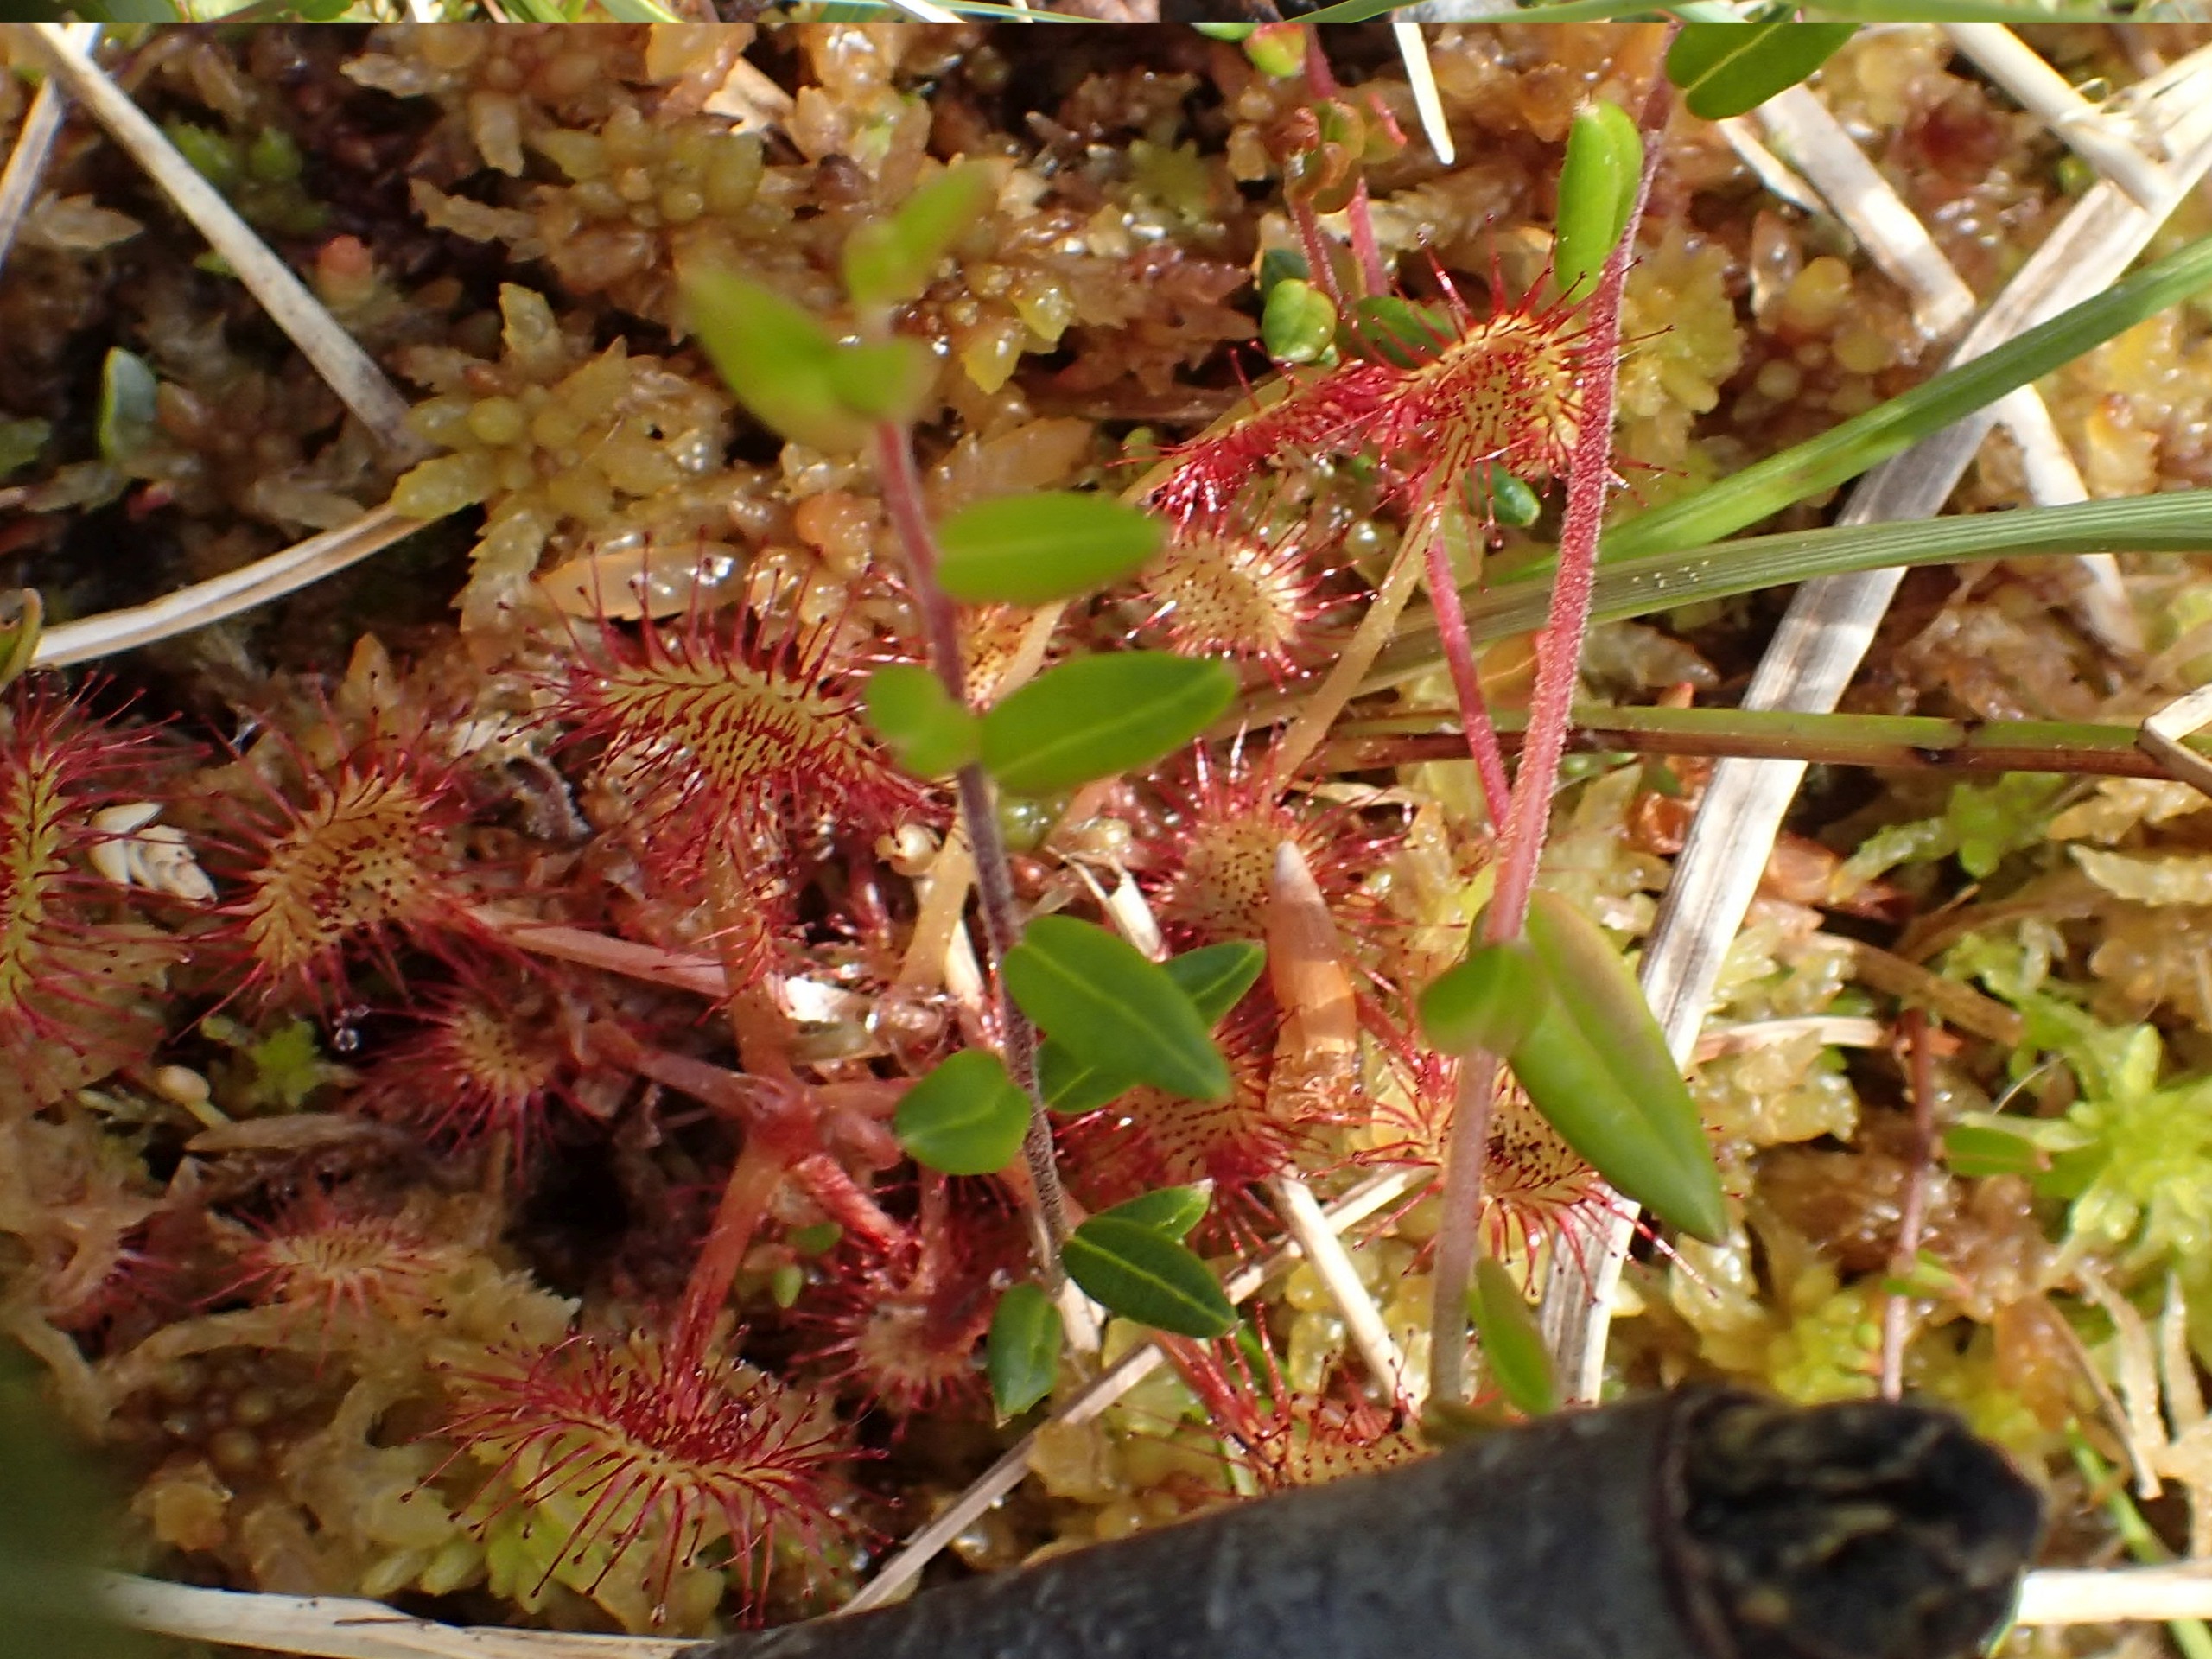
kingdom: Plantae
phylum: Tracheophyta
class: Magnoliopsida
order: Caryophyllales
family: Droseraceae
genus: Drosera
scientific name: Drosera rotundifolia
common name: Rundbladet soldug
